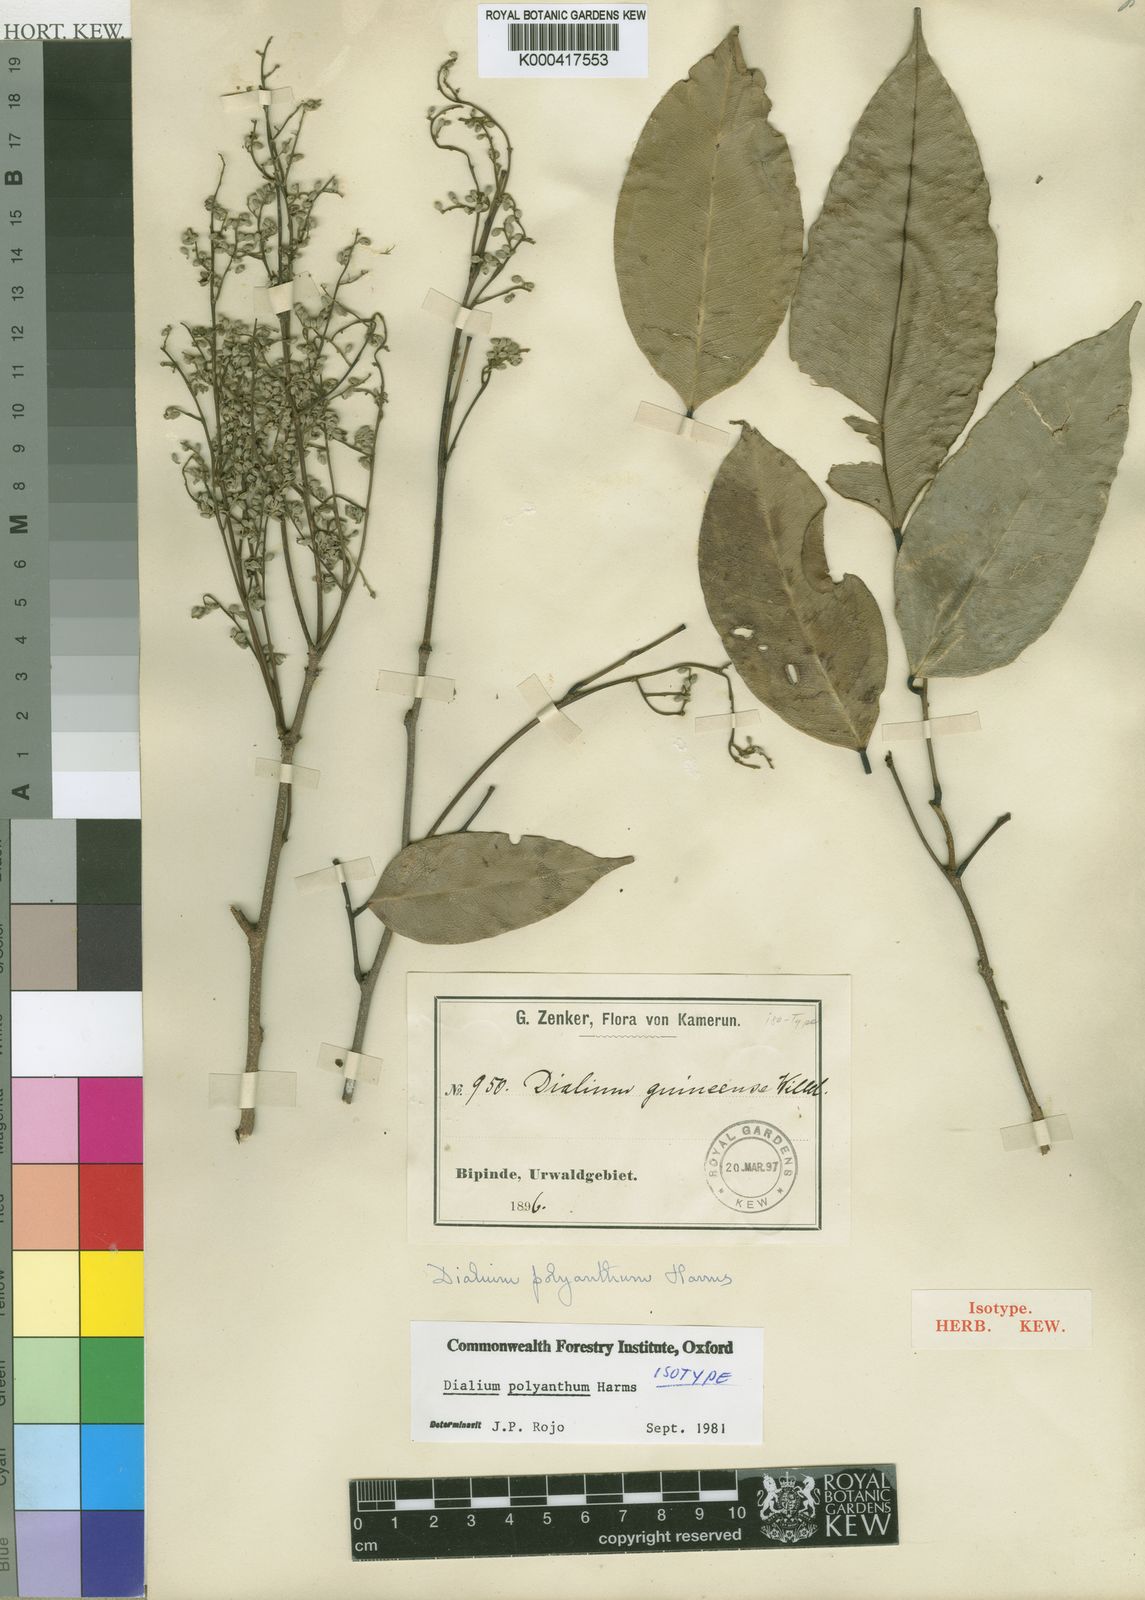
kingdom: Plantae
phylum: Tracheophyta
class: Magnoliopsida
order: Fabales
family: Fabaceae
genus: Dialium
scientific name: Dialium polyanthum
